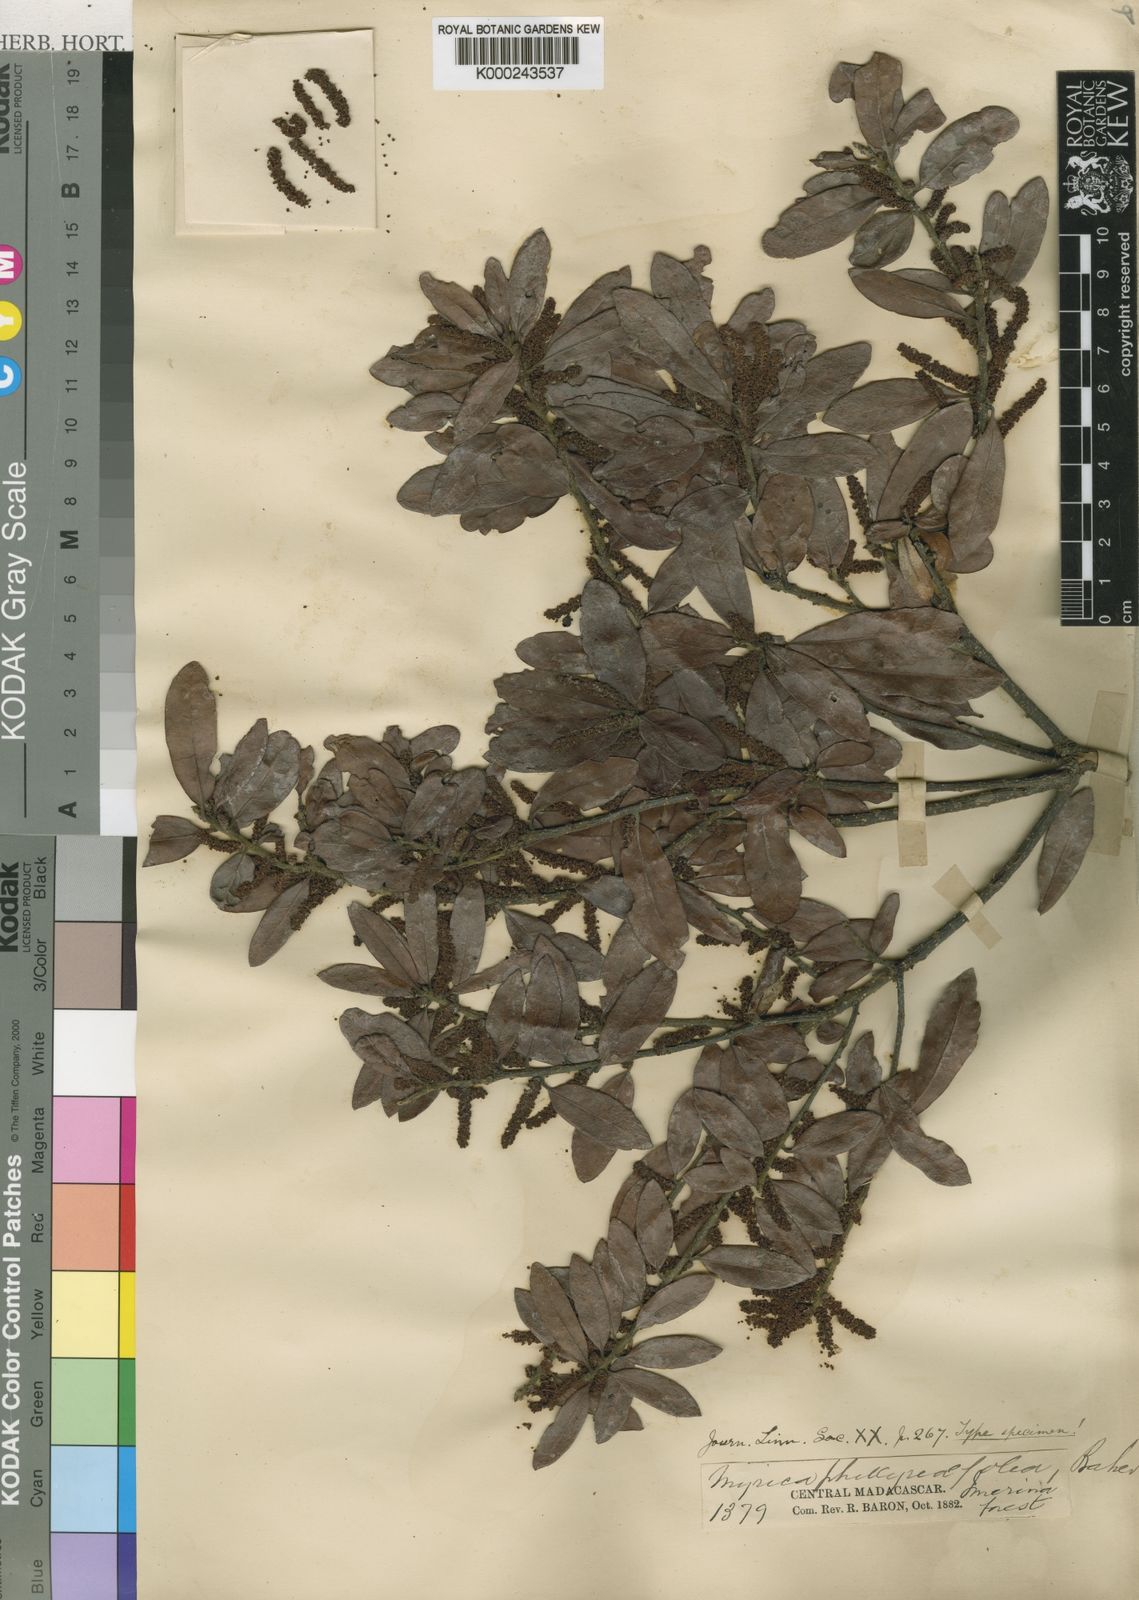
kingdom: Plantae
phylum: Tracheophyta
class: Magnoliopsida
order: Fagales
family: Myricaceae
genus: Morella
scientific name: Morella salicifolia
